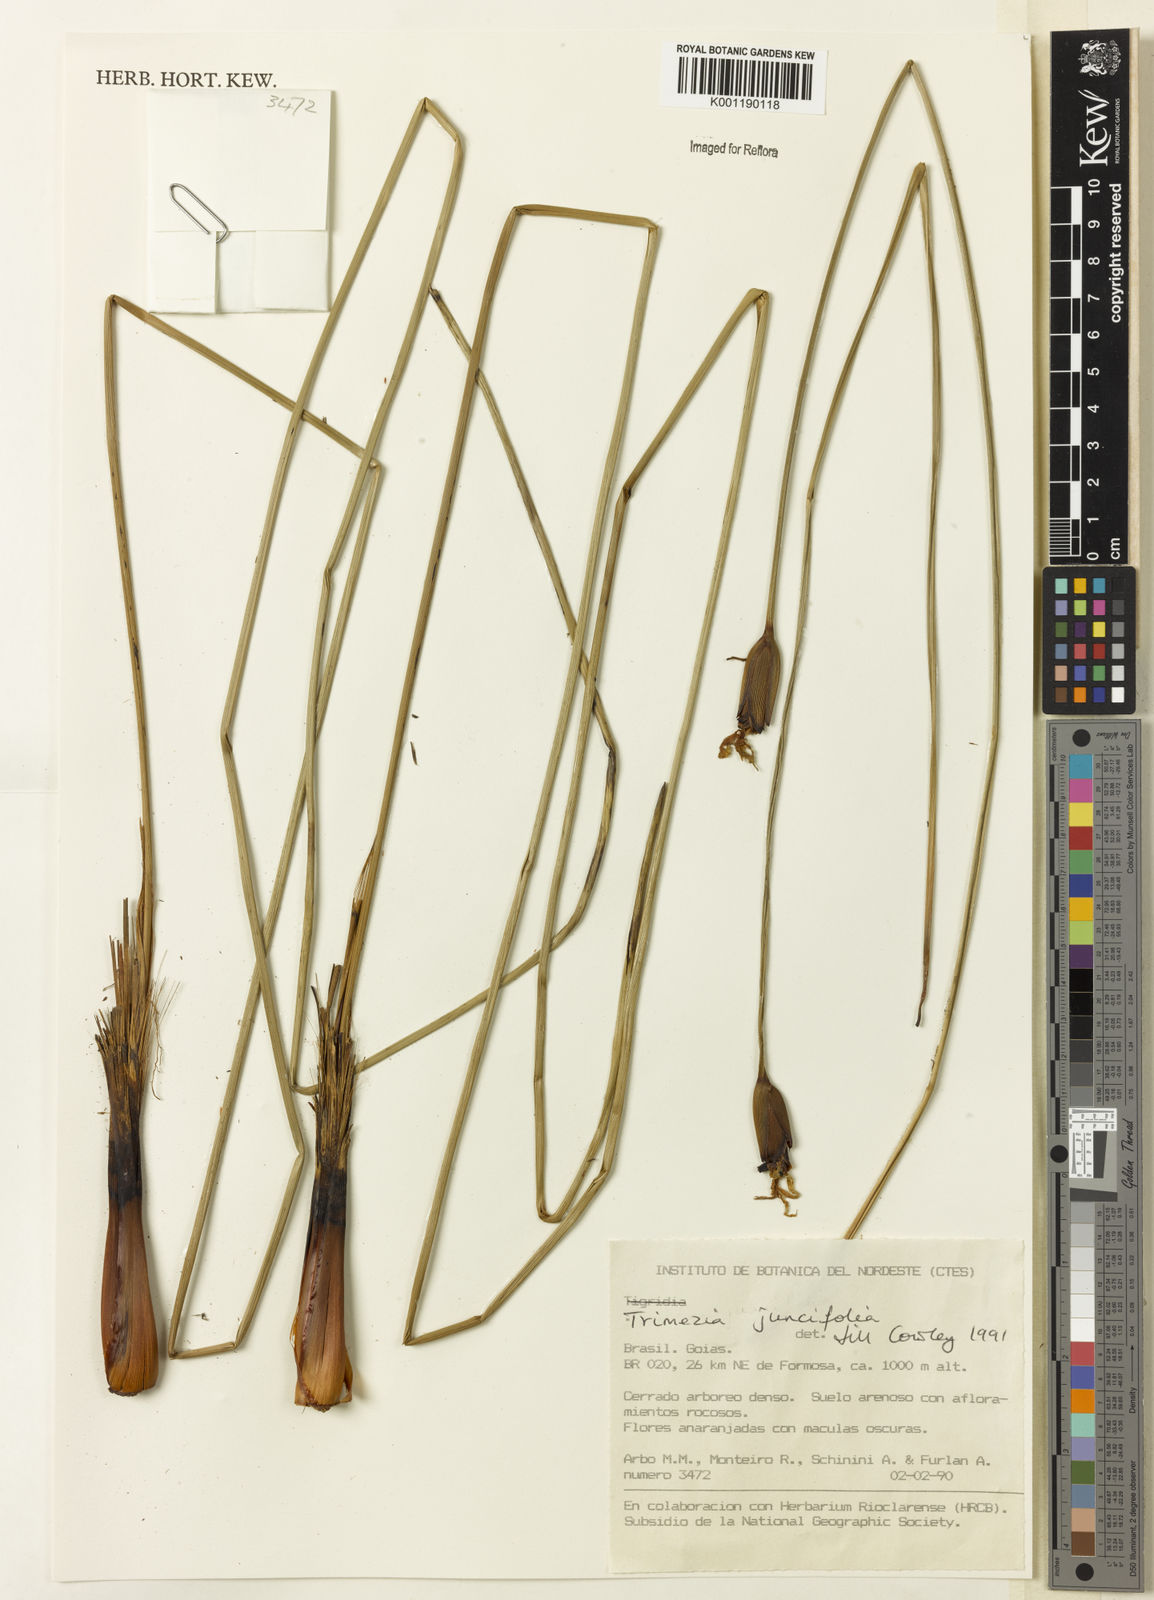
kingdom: Plantae
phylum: Tracheophyta
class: Liliopsida
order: Asparagales
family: Iridaceae
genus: Trimezia
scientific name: Trimezia juncifolia
